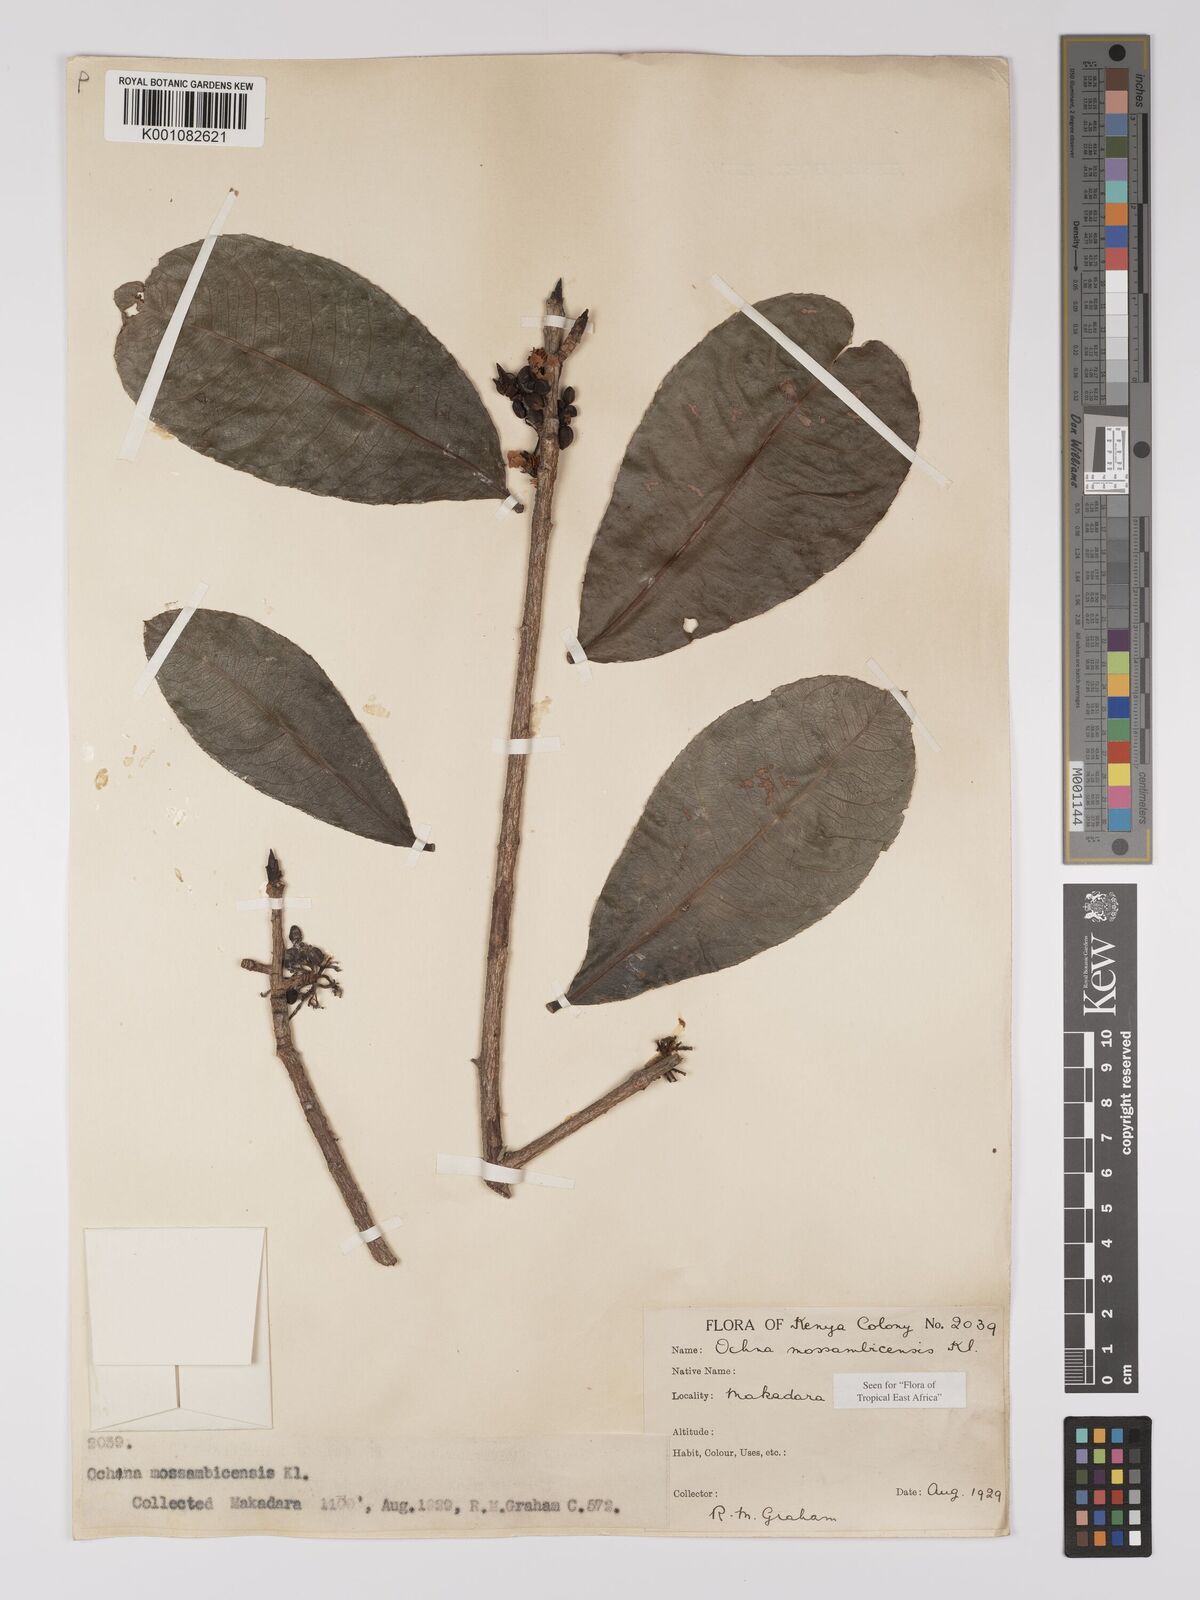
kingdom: Plantae
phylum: Tracheophyta
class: Magnoliopsida
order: Malpighiales
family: Ochnaceae
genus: Ochna
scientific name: Ochna atropurpurea
